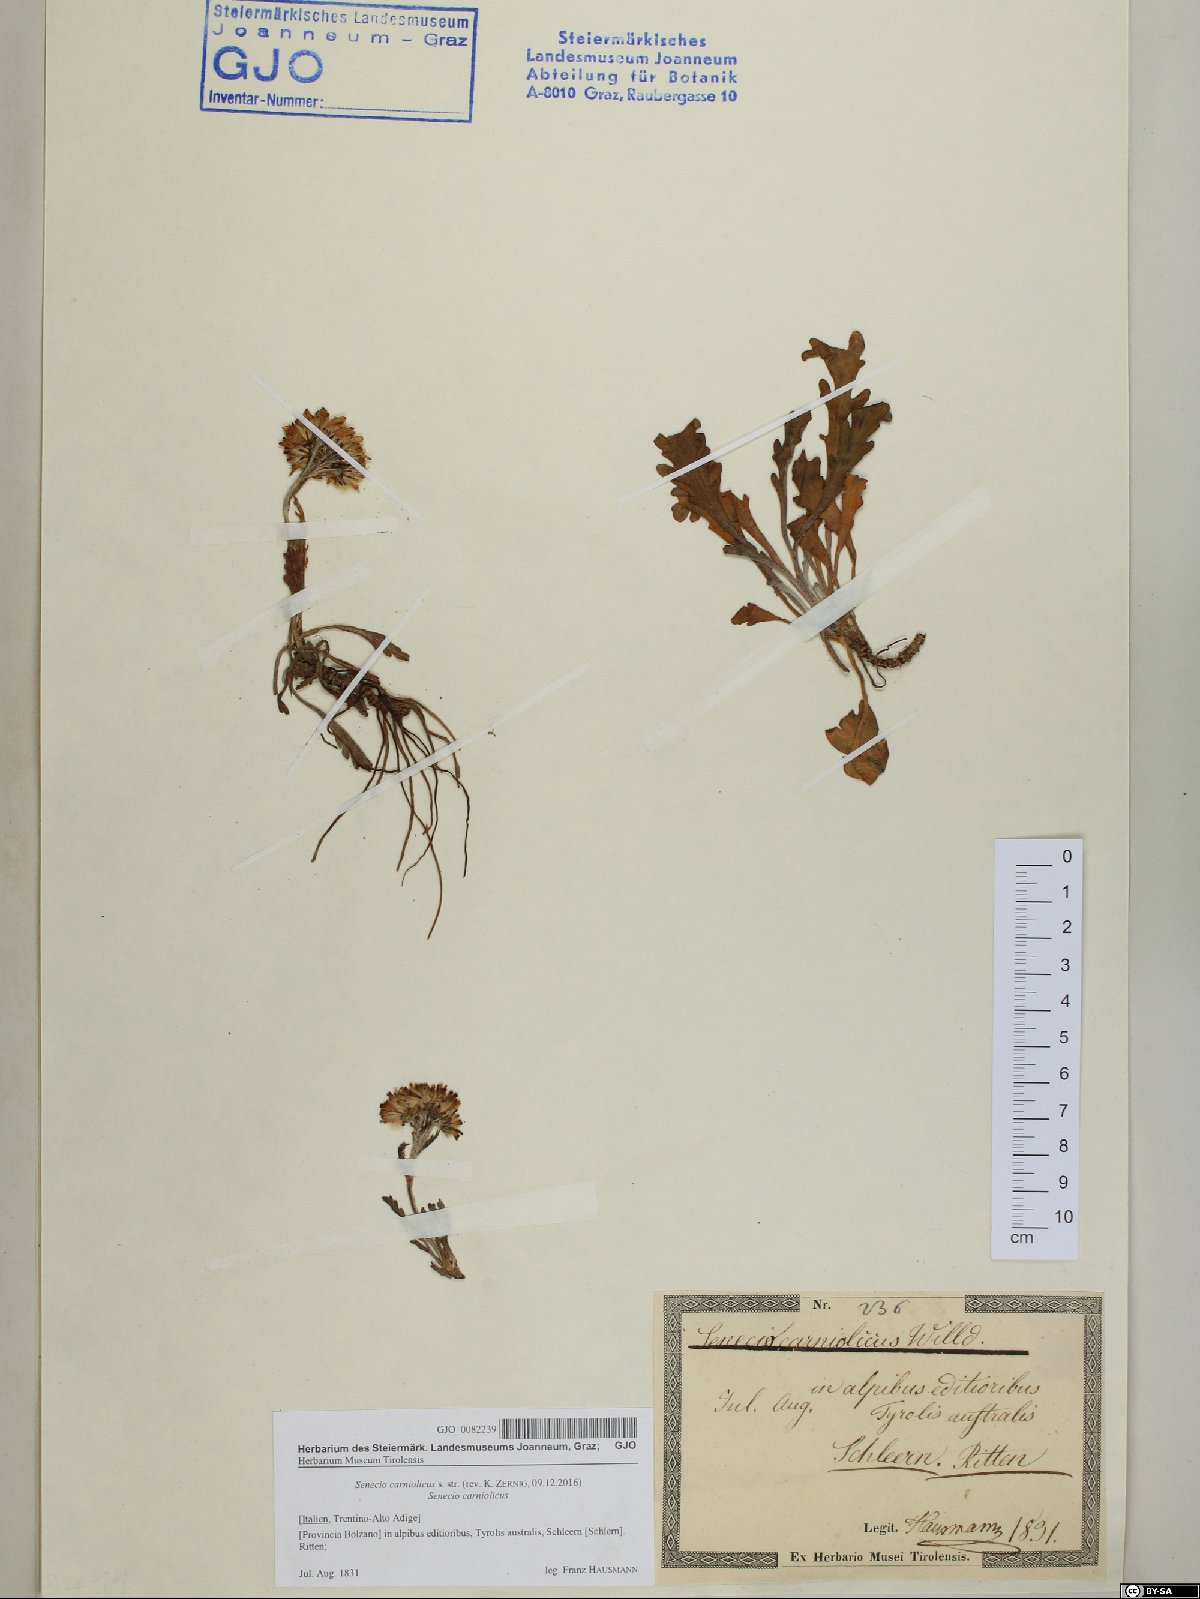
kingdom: Plantae
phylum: Tracheophyta
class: Magnoliopsida
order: Asterales
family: Asteraceae
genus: Jacobaea
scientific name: Jacobaea carniolica
